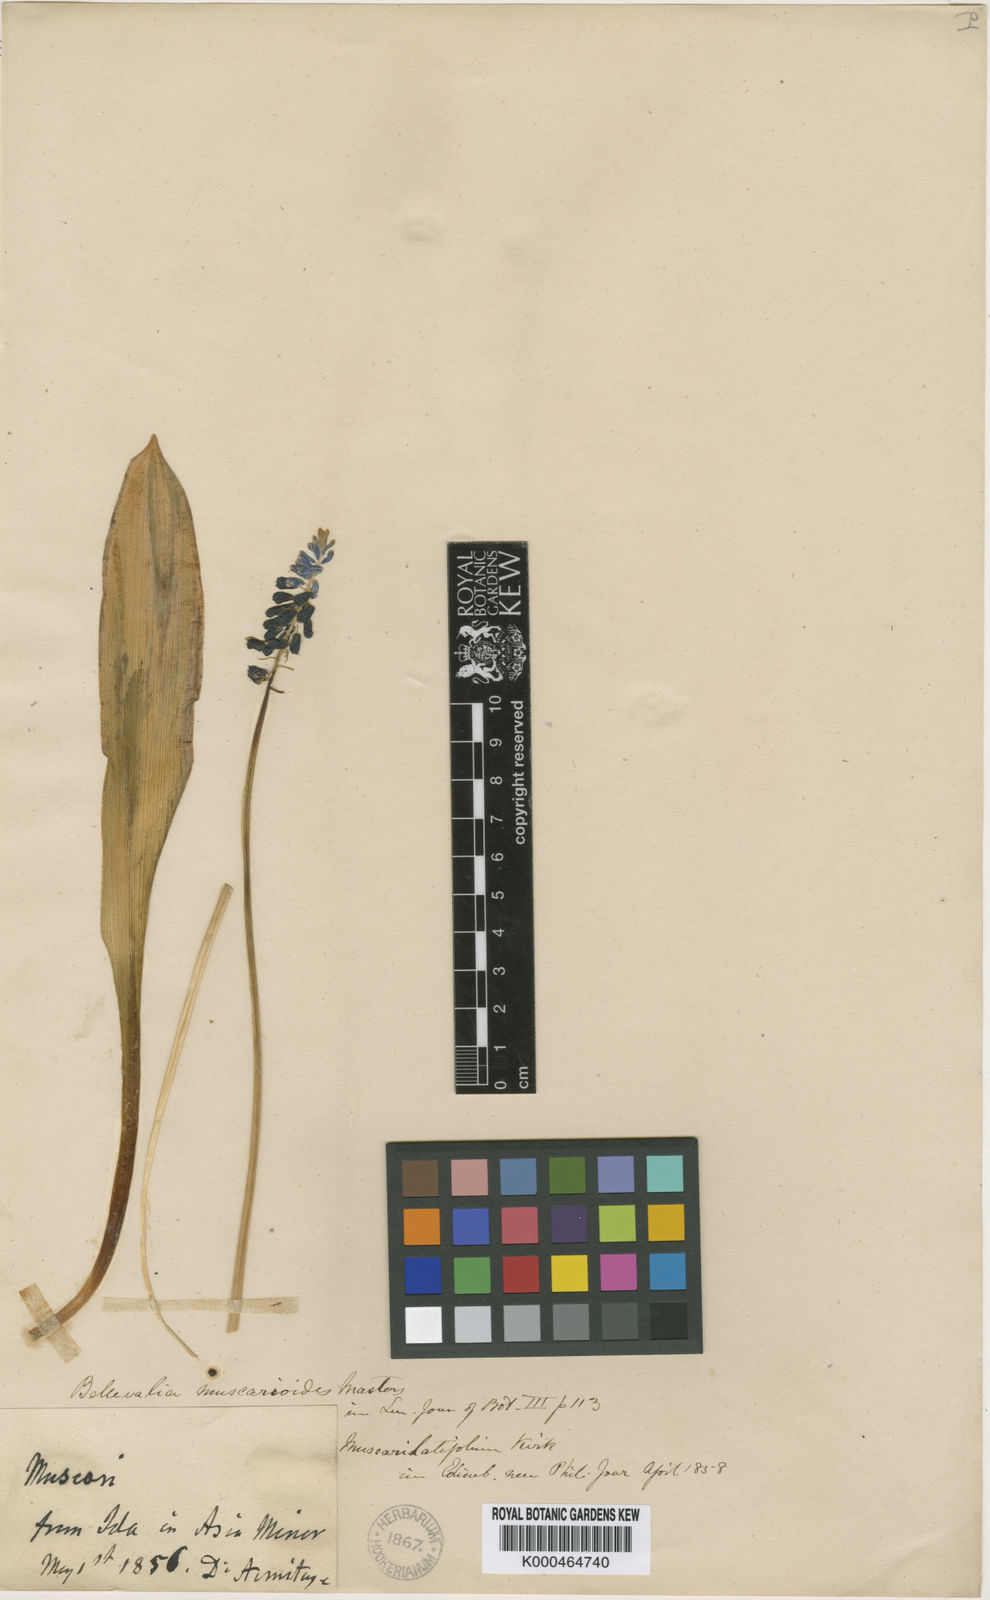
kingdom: Plantae
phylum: Tracheophyta
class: Liliopsida
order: Asparagales
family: Asparagaceae
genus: Muscari
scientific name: Muscari latifolium
